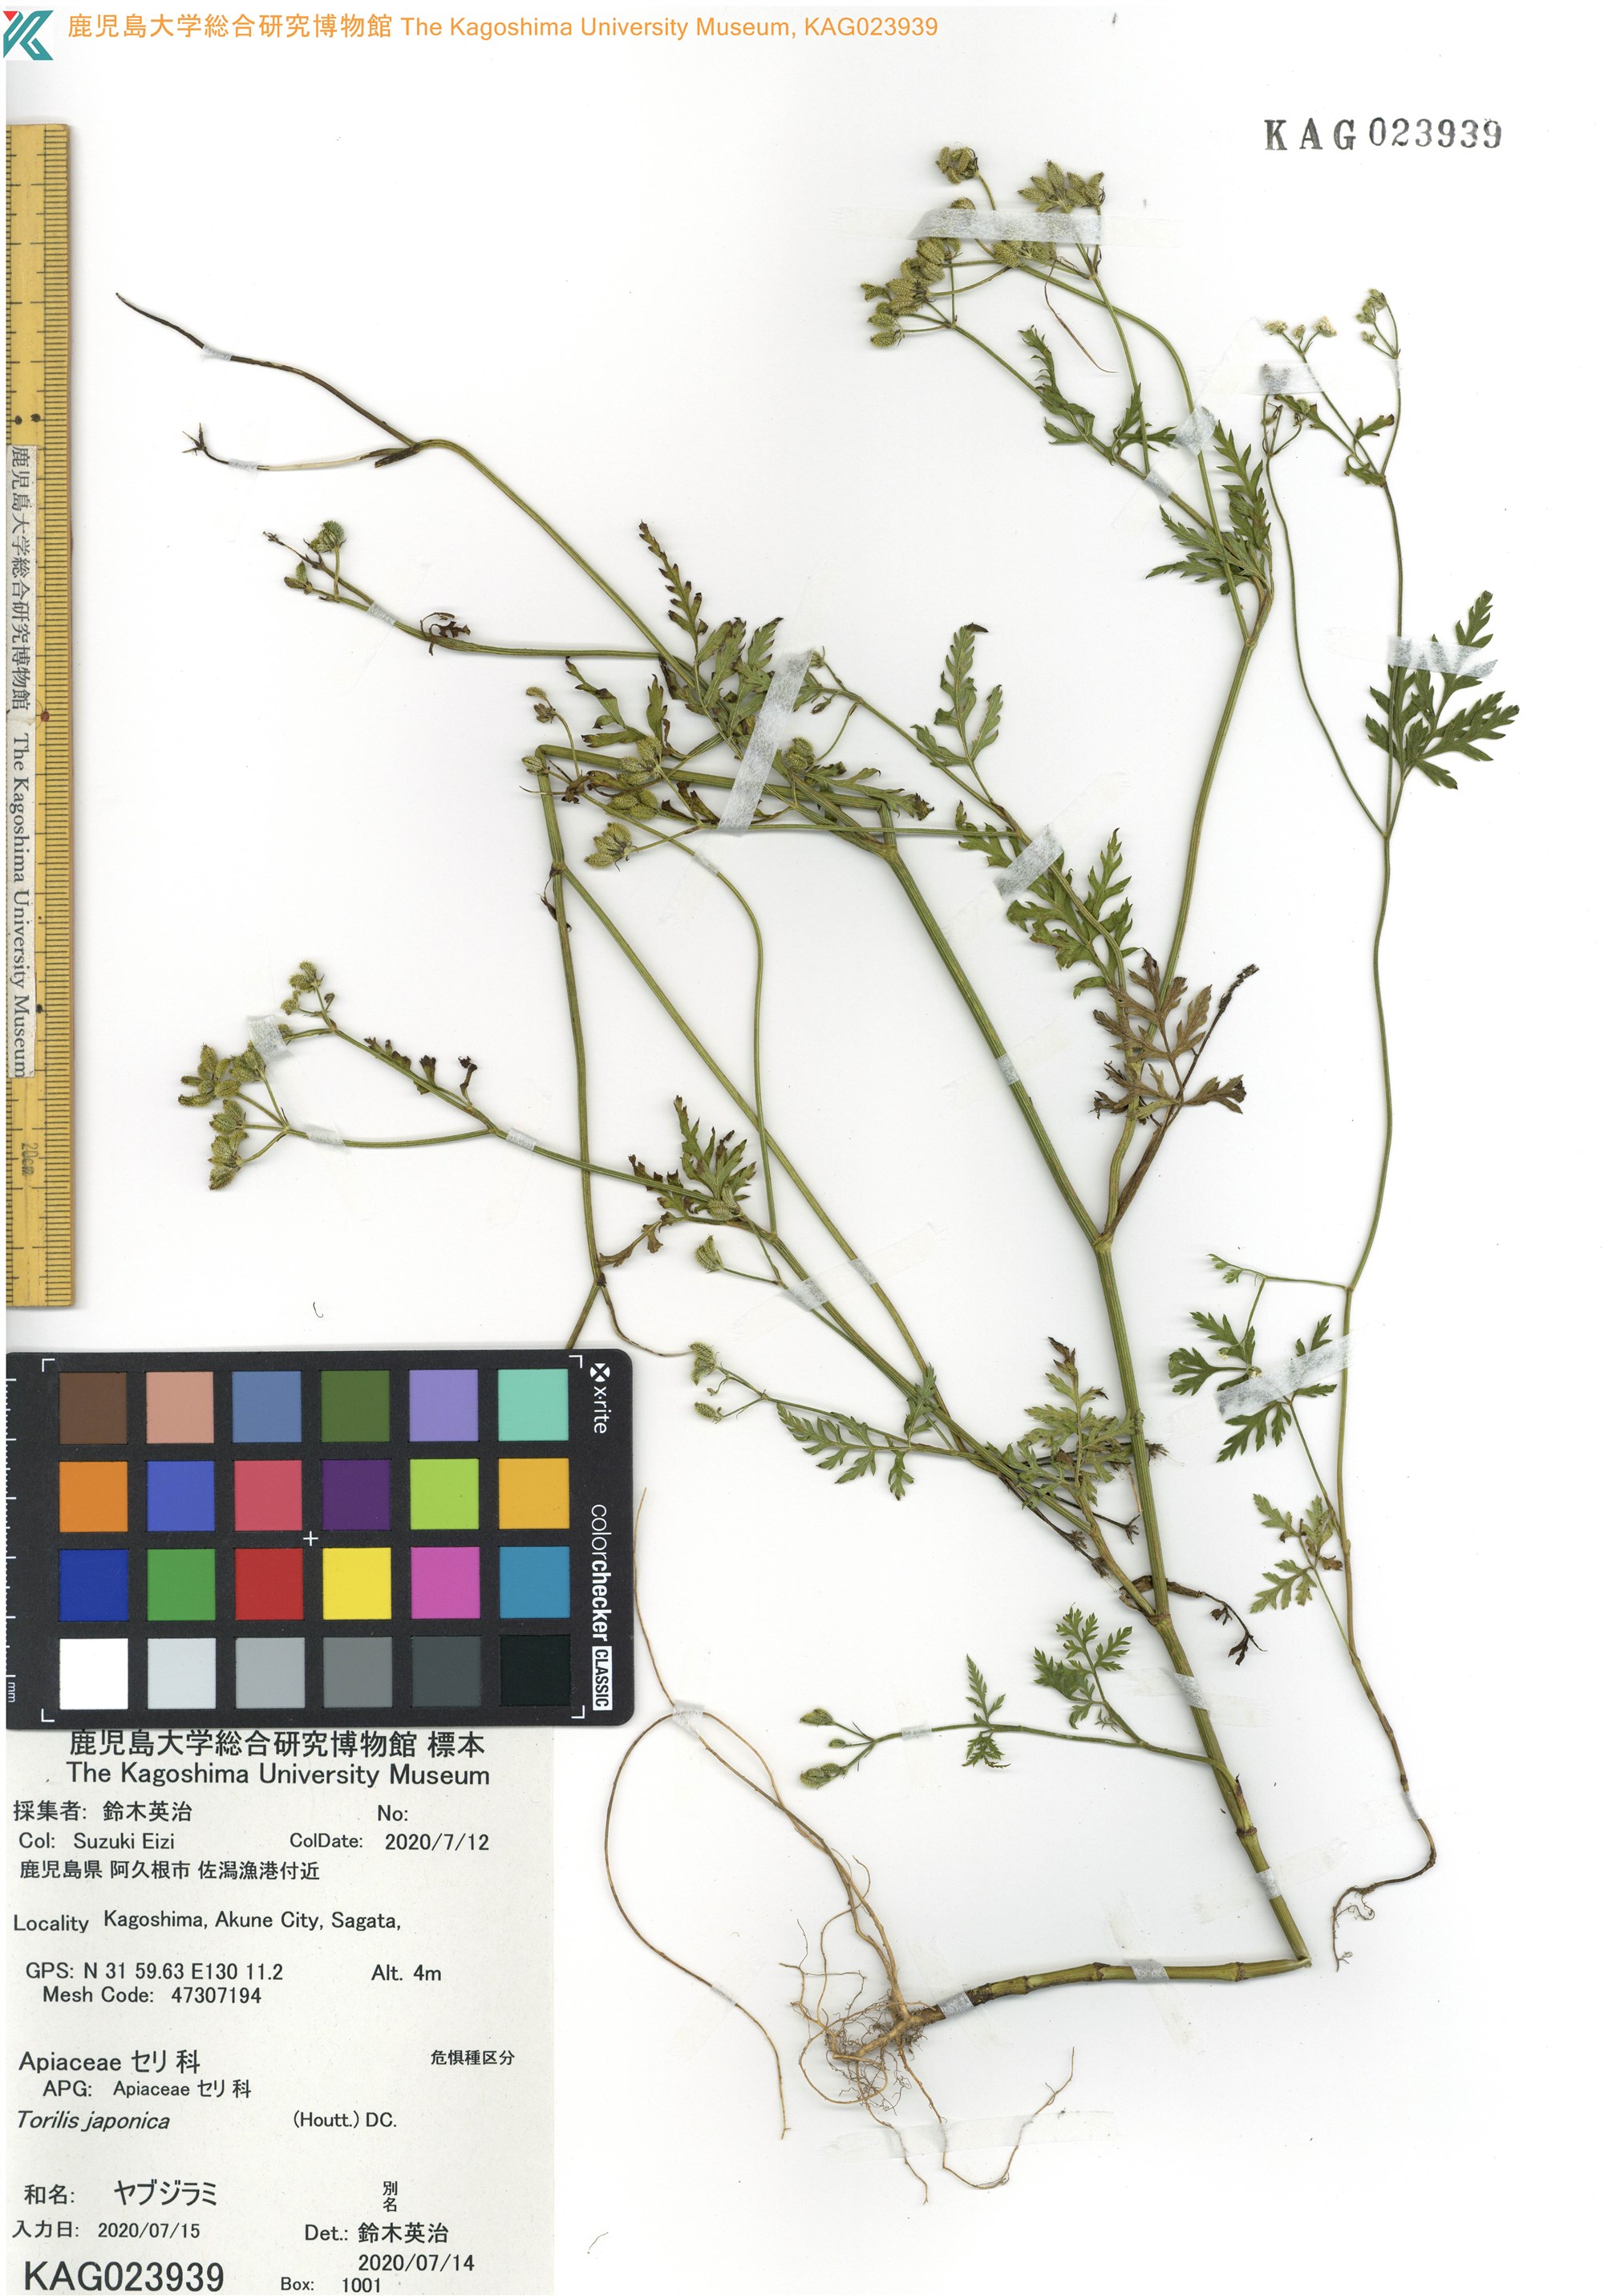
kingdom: Plantae
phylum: Tracheophyta
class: Magnoliopsida
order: Apiales
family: Apiaceae
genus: Torilis
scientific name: Torilis japonica
